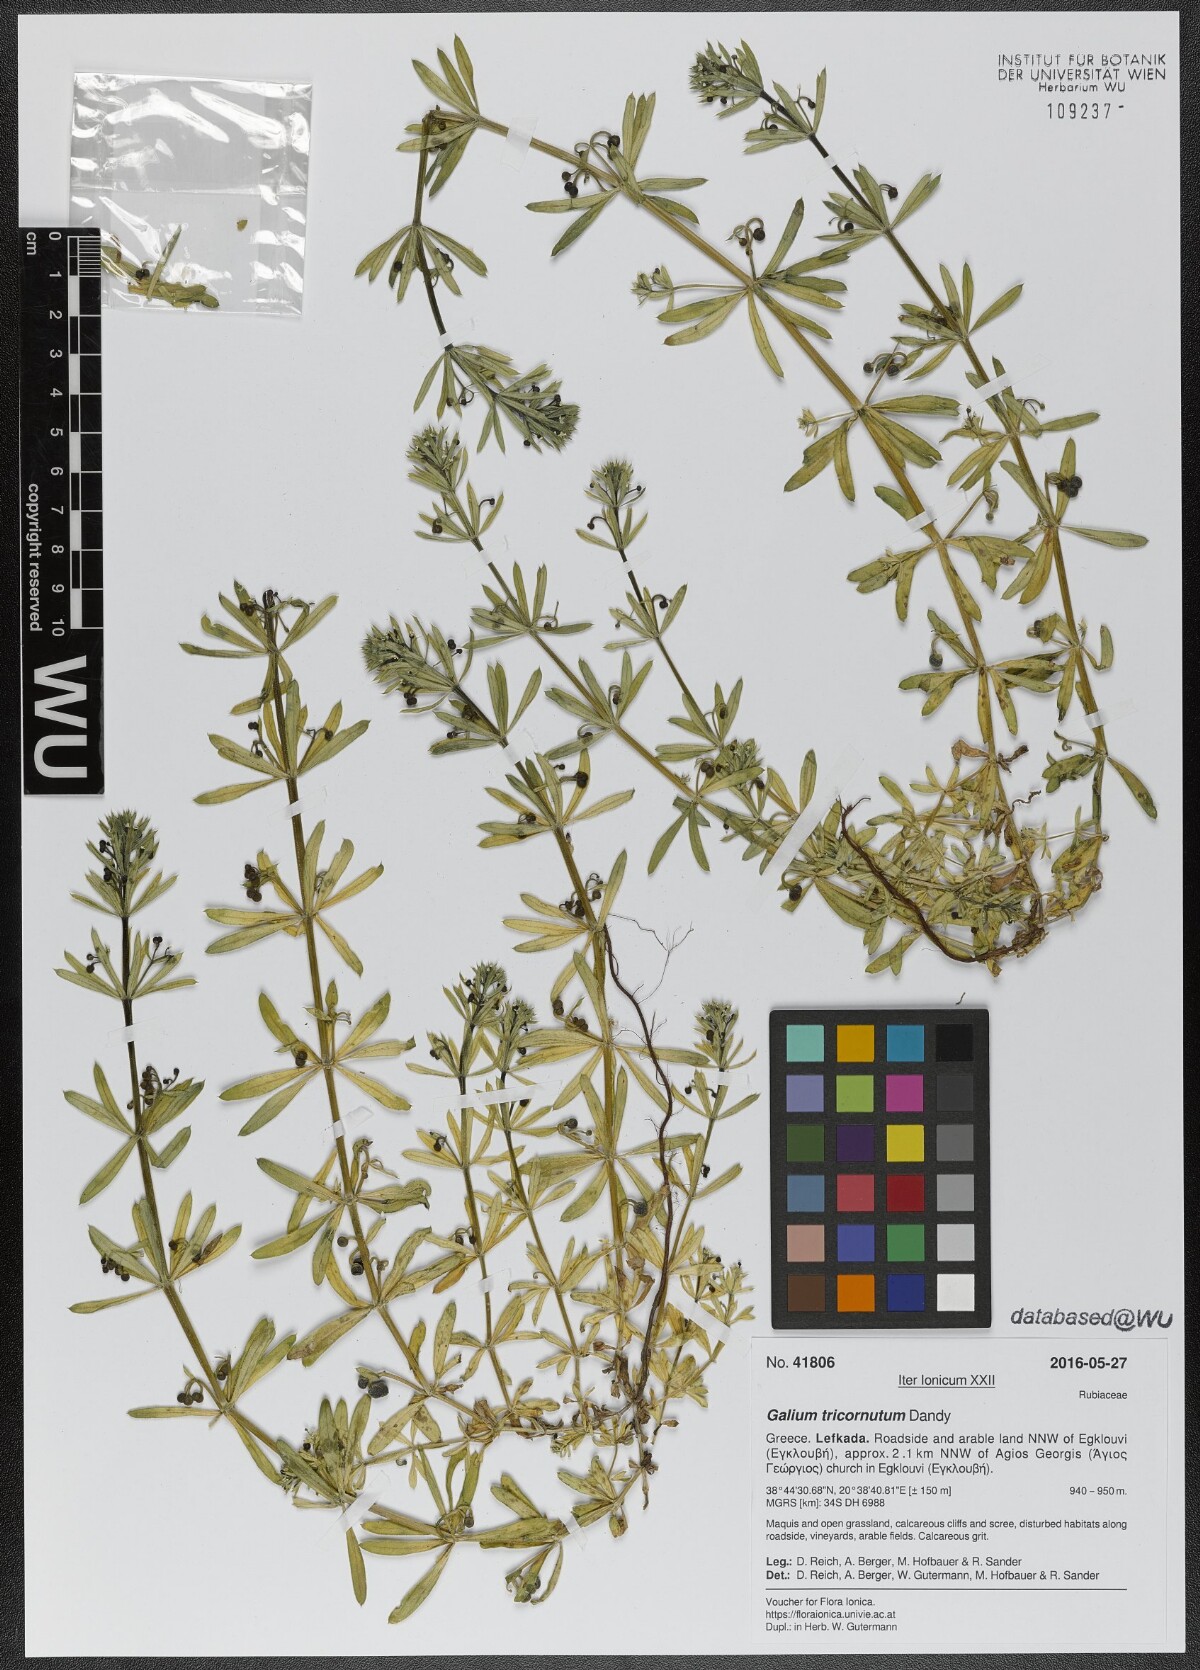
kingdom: Plantae
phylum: Tracheophyta
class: Magnoliopsida
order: Gentianales
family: Rubiaceae
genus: Galium
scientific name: Galium tricornutum
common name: Corn cleavers
